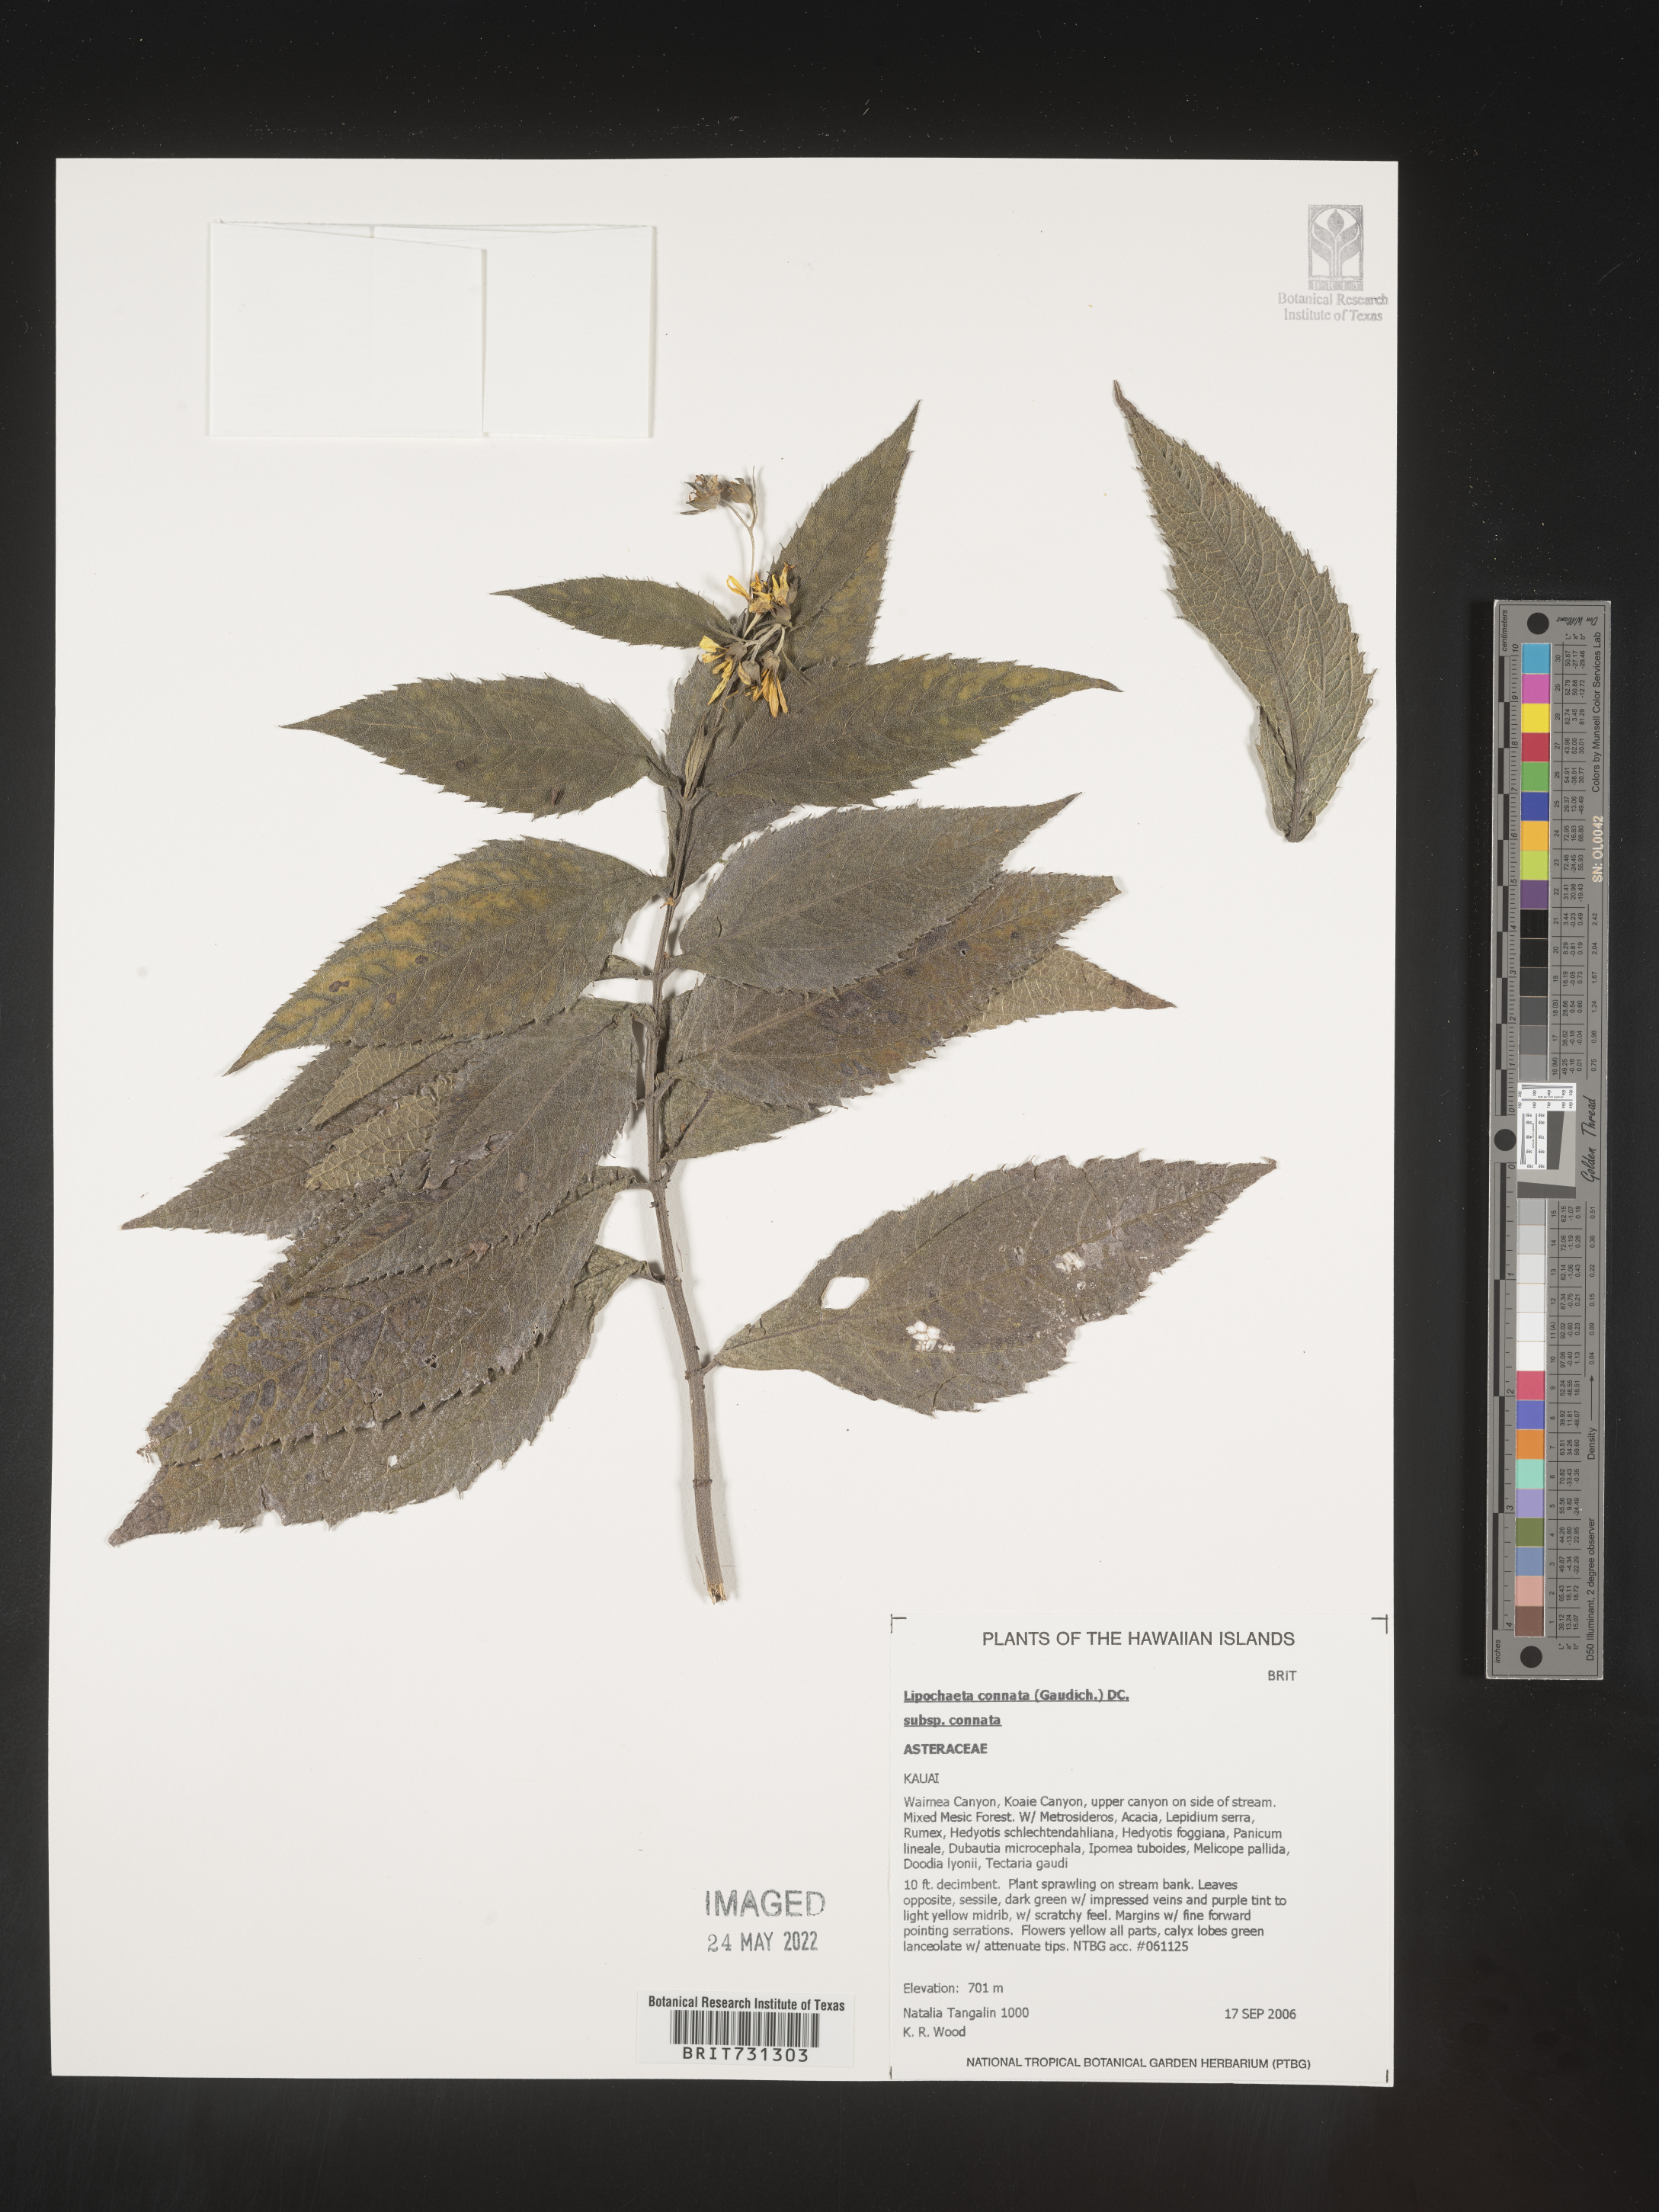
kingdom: Plantae
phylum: Tracheophyta
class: Magnoliopsida
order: Asterales
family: Asteraceae
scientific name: Asteraceae
